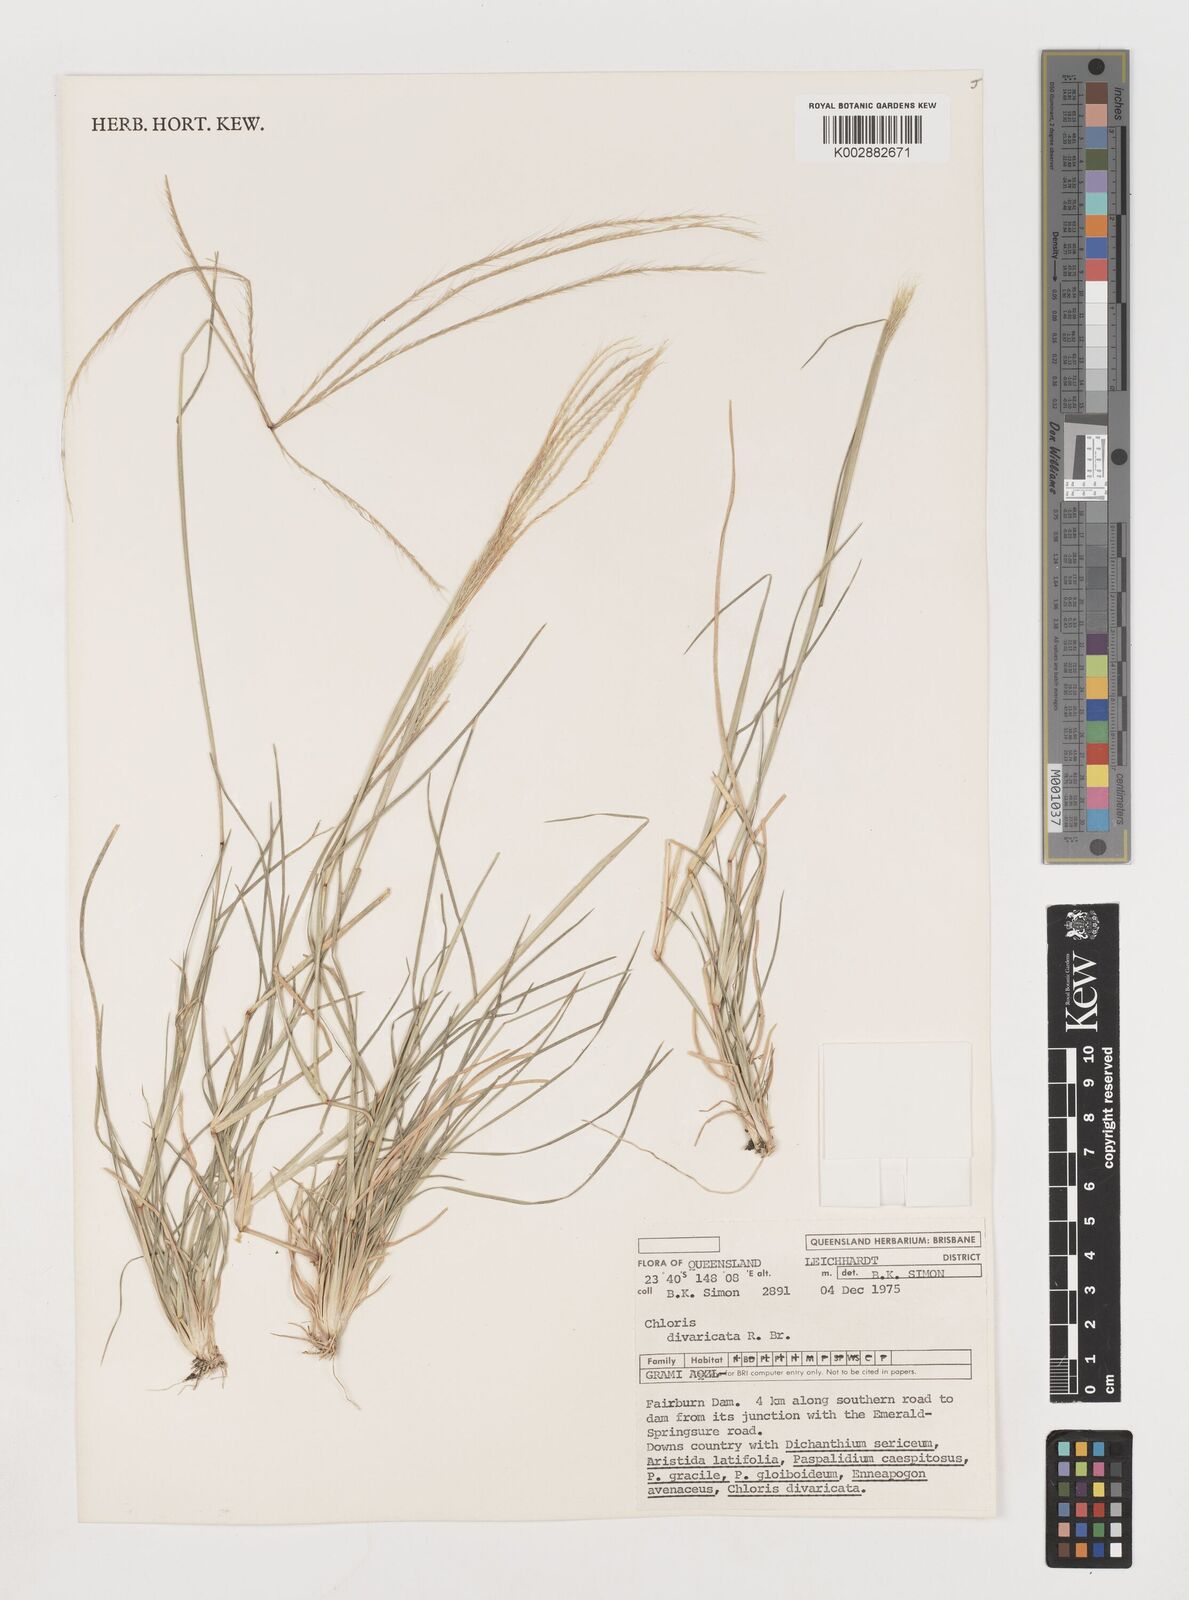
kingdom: Plantae
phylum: Tracheophyta
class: Liliopsida
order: Poales
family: Poaceae
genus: Chloris
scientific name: Chloris divaricata
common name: Spreading windmill grass
